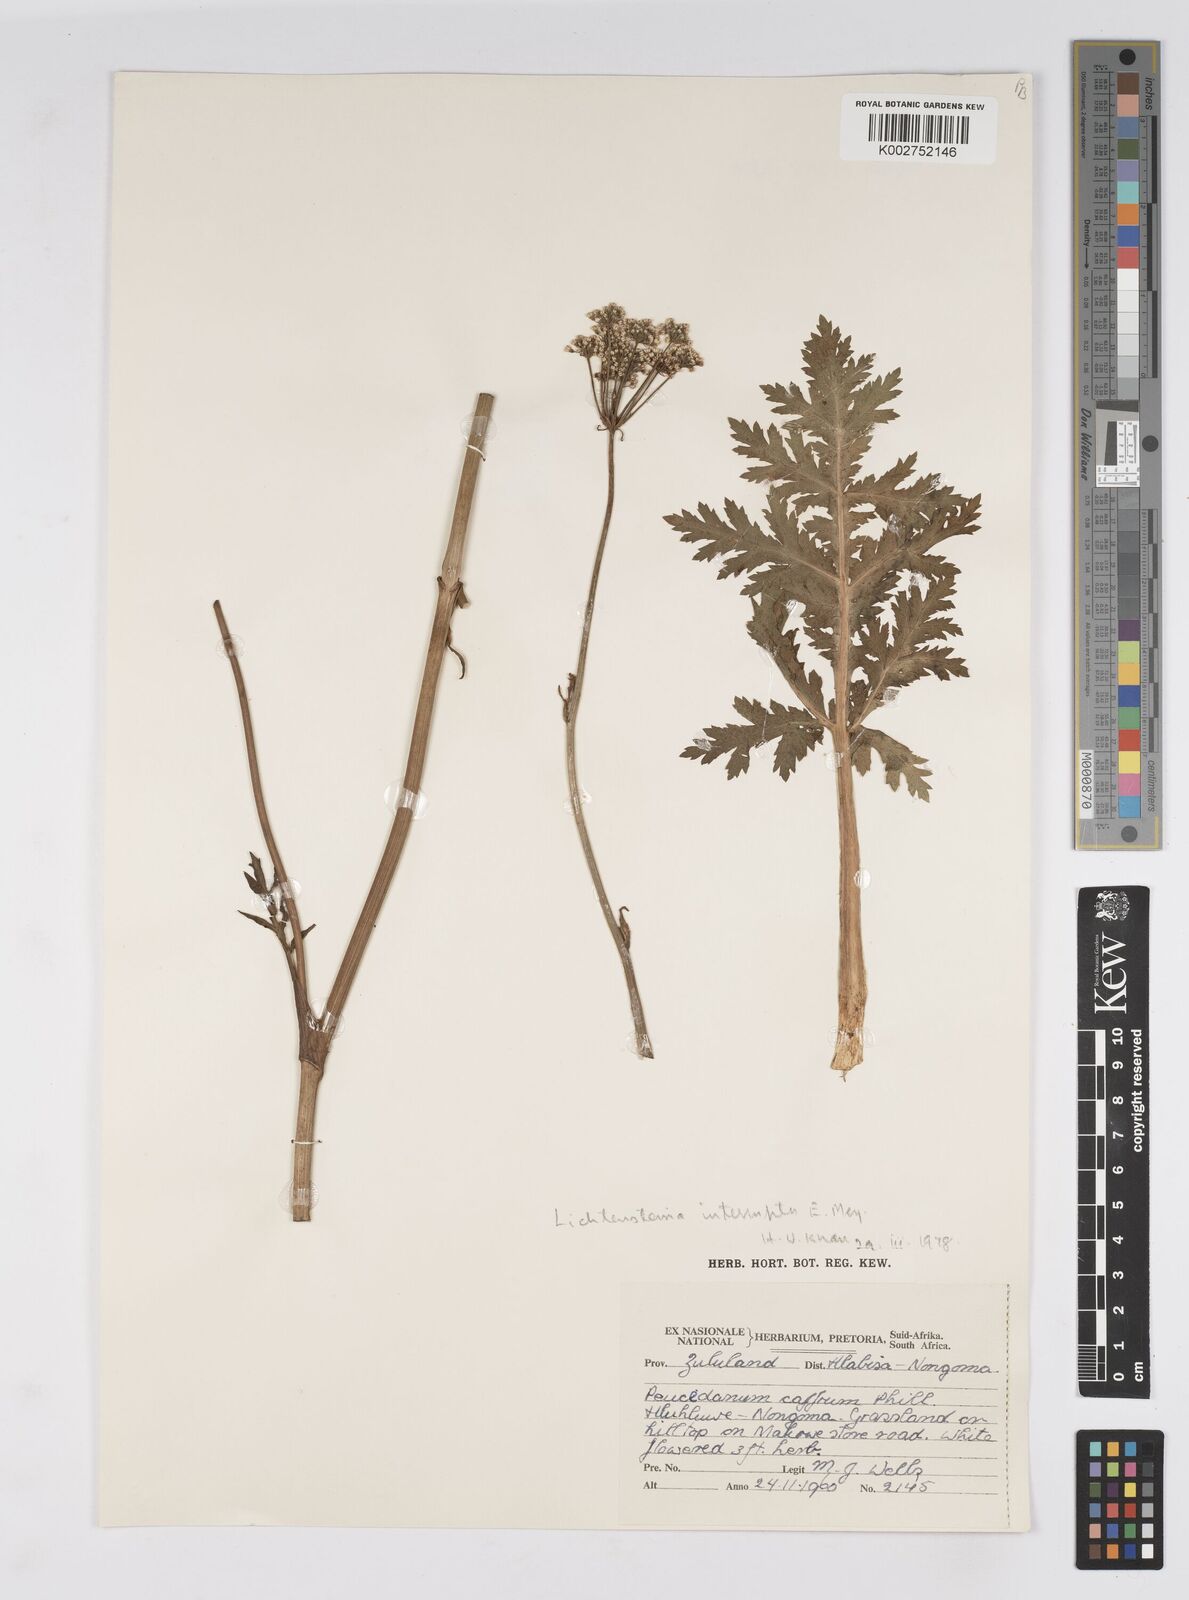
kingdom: Plantae
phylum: Tracheophyta
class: Magnoliopsida
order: Apiales
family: Apiaceae
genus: Lichtensteinia
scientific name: Lichtensteinia interrupta
